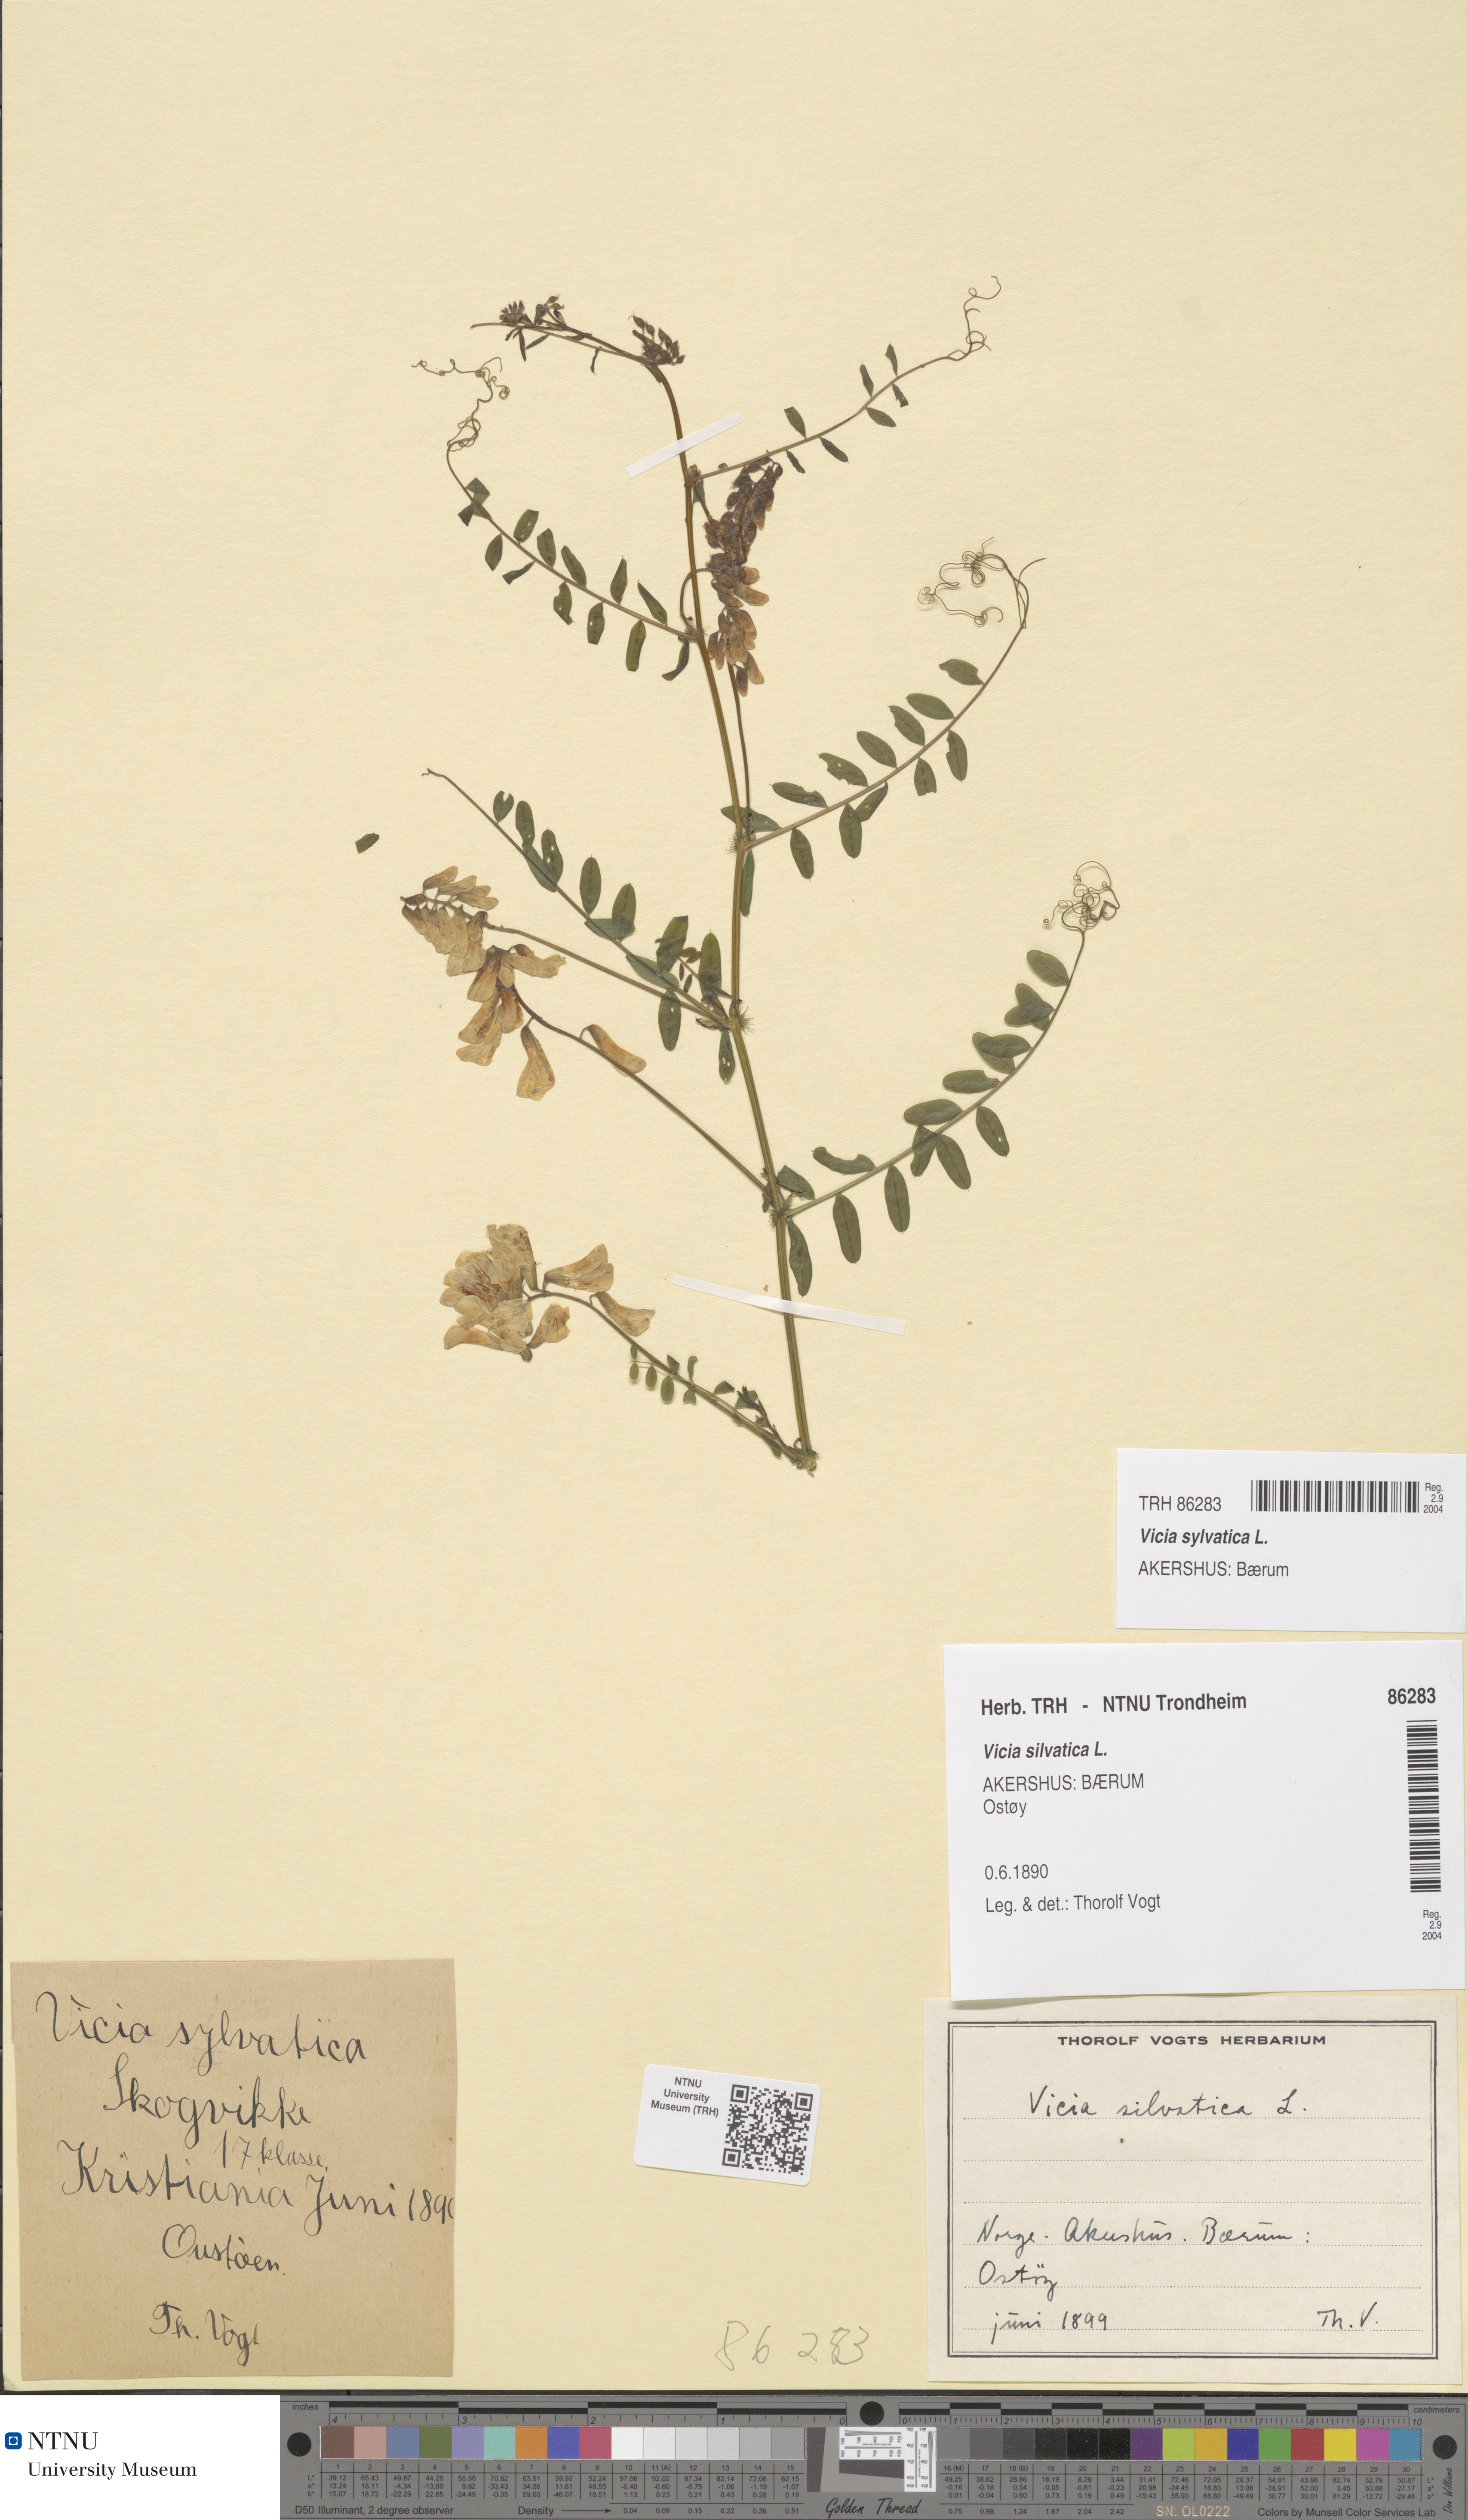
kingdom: Plantae
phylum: Tracheophyta
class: Magnoliopsida
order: Fabales
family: Fabaceae
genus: Vicia
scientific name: Vicia sylvatica
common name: Wood vetch
